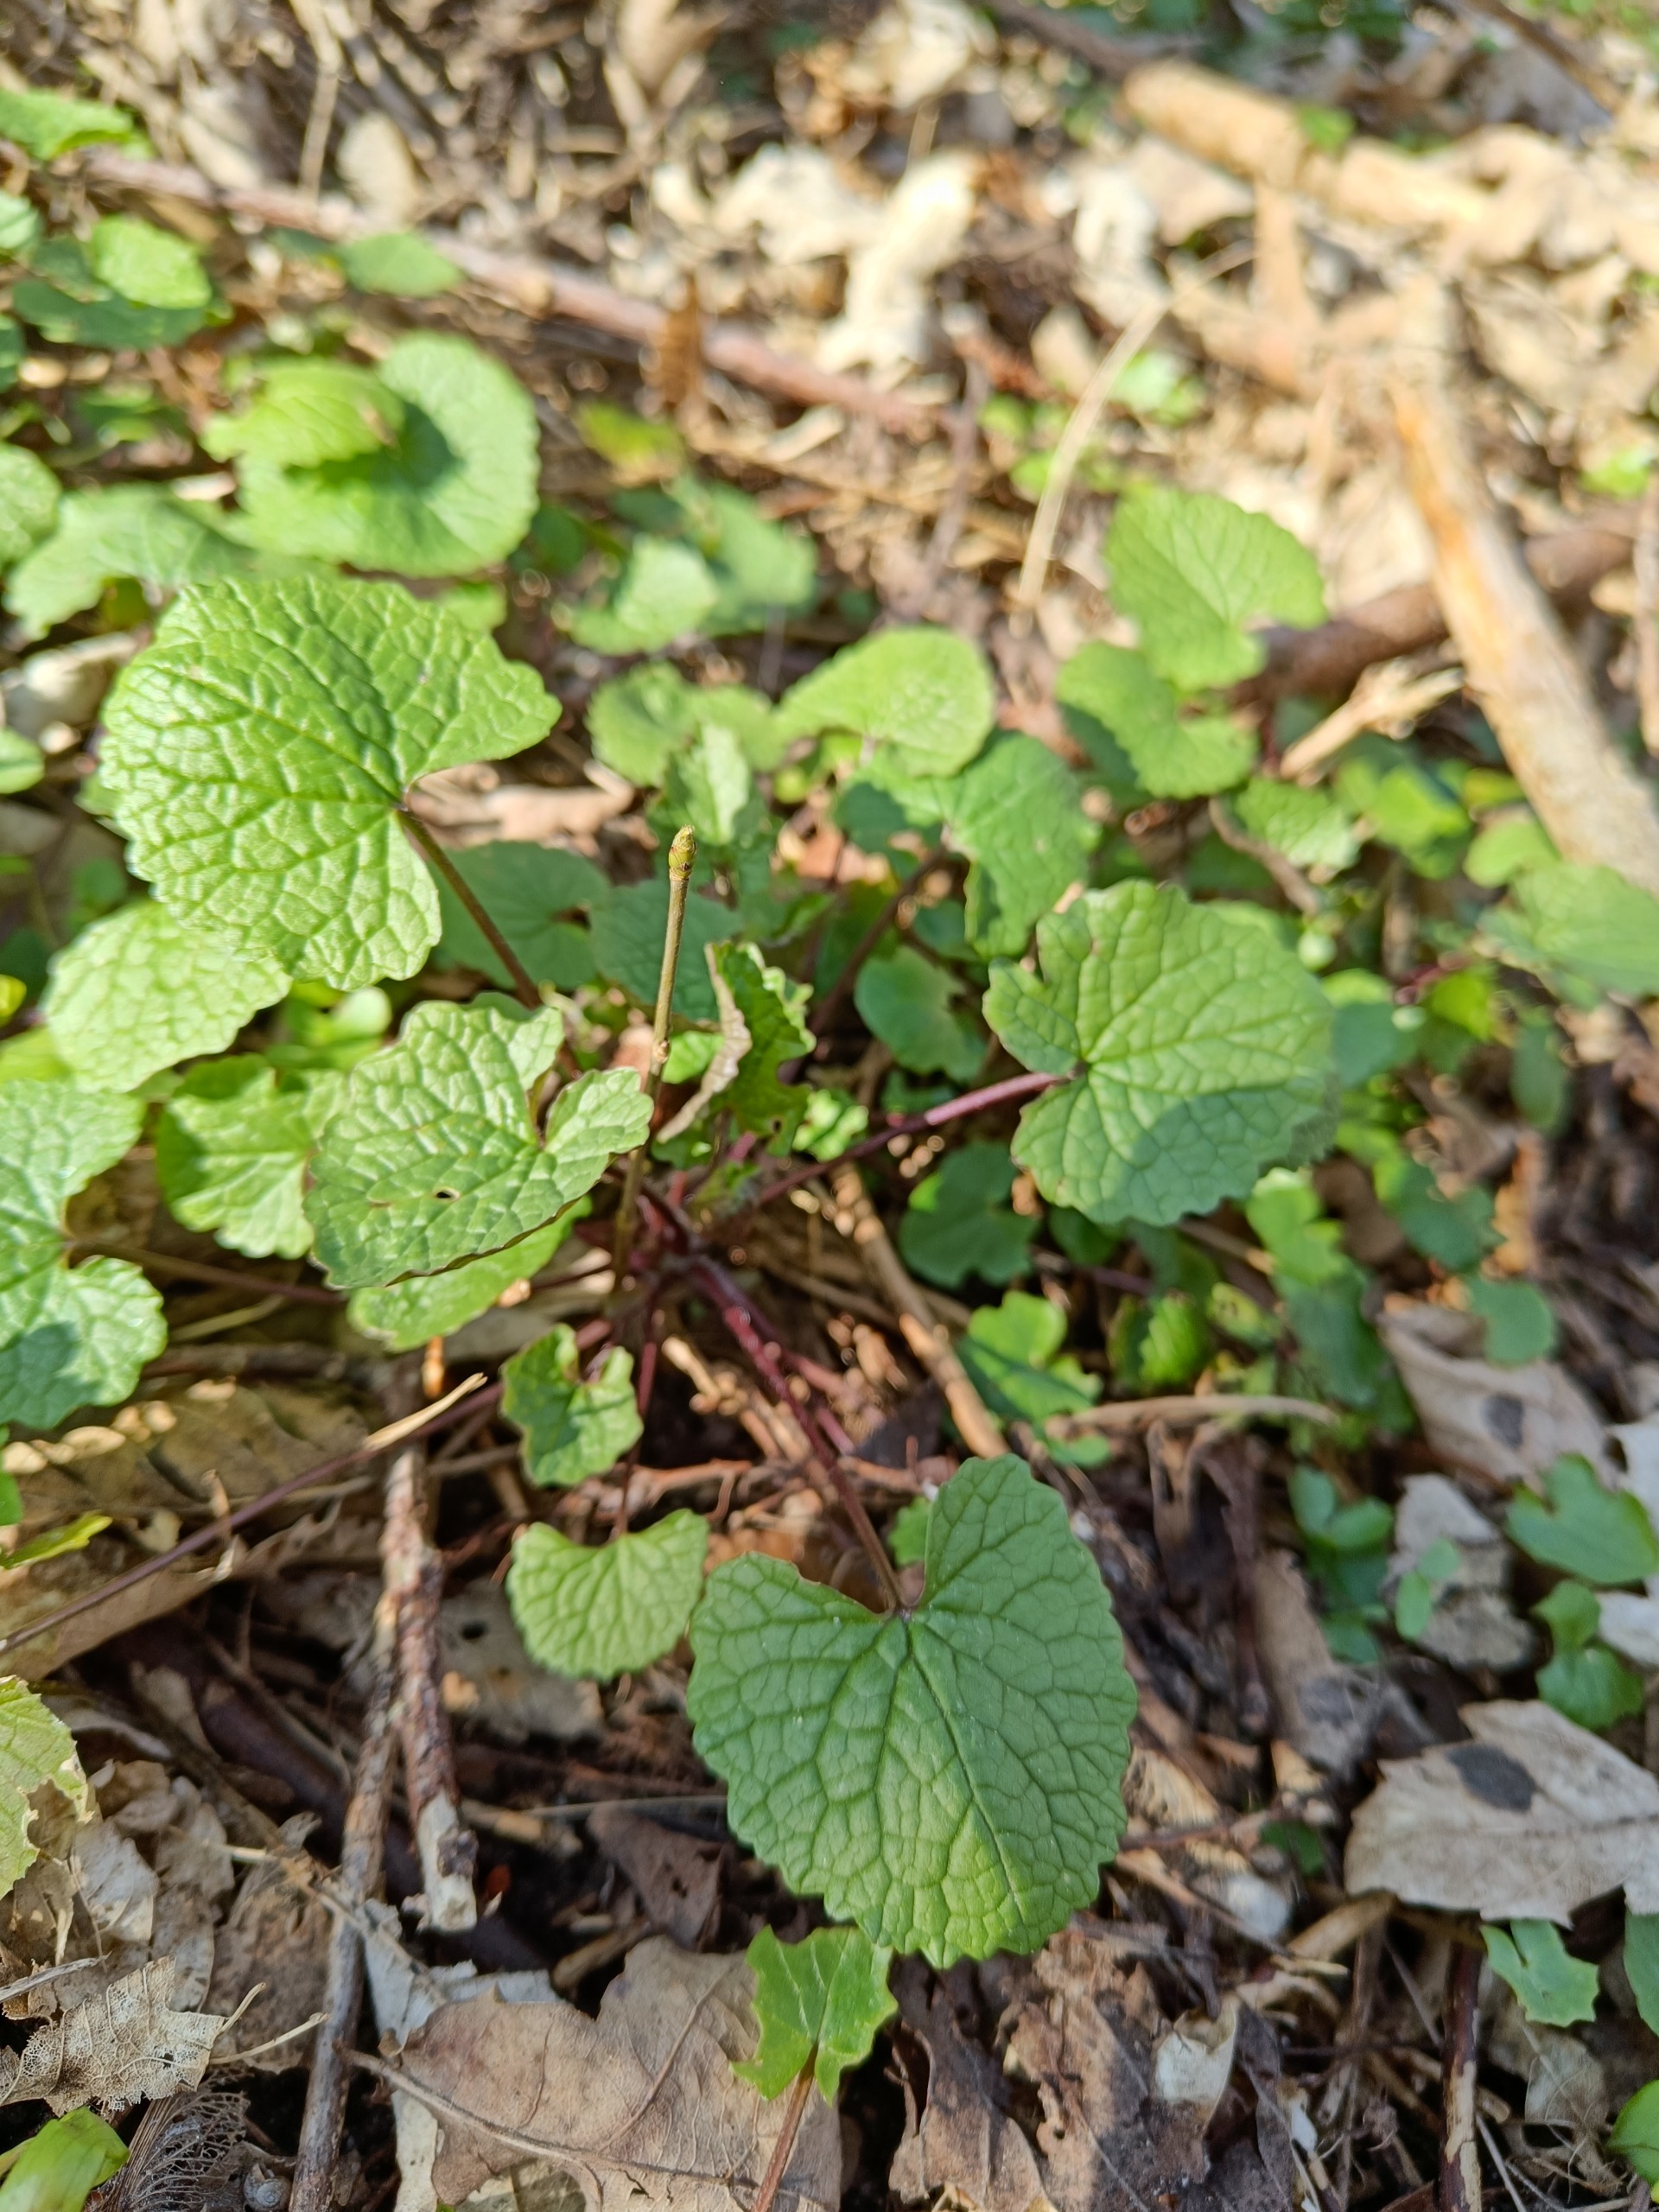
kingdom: Plantae
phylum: Tracheophyta
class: Magnoliopsida
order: Brassicales
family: Brassicaceae
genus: Alliaria
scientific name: Alliaria petiolata
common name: Løgkarse
